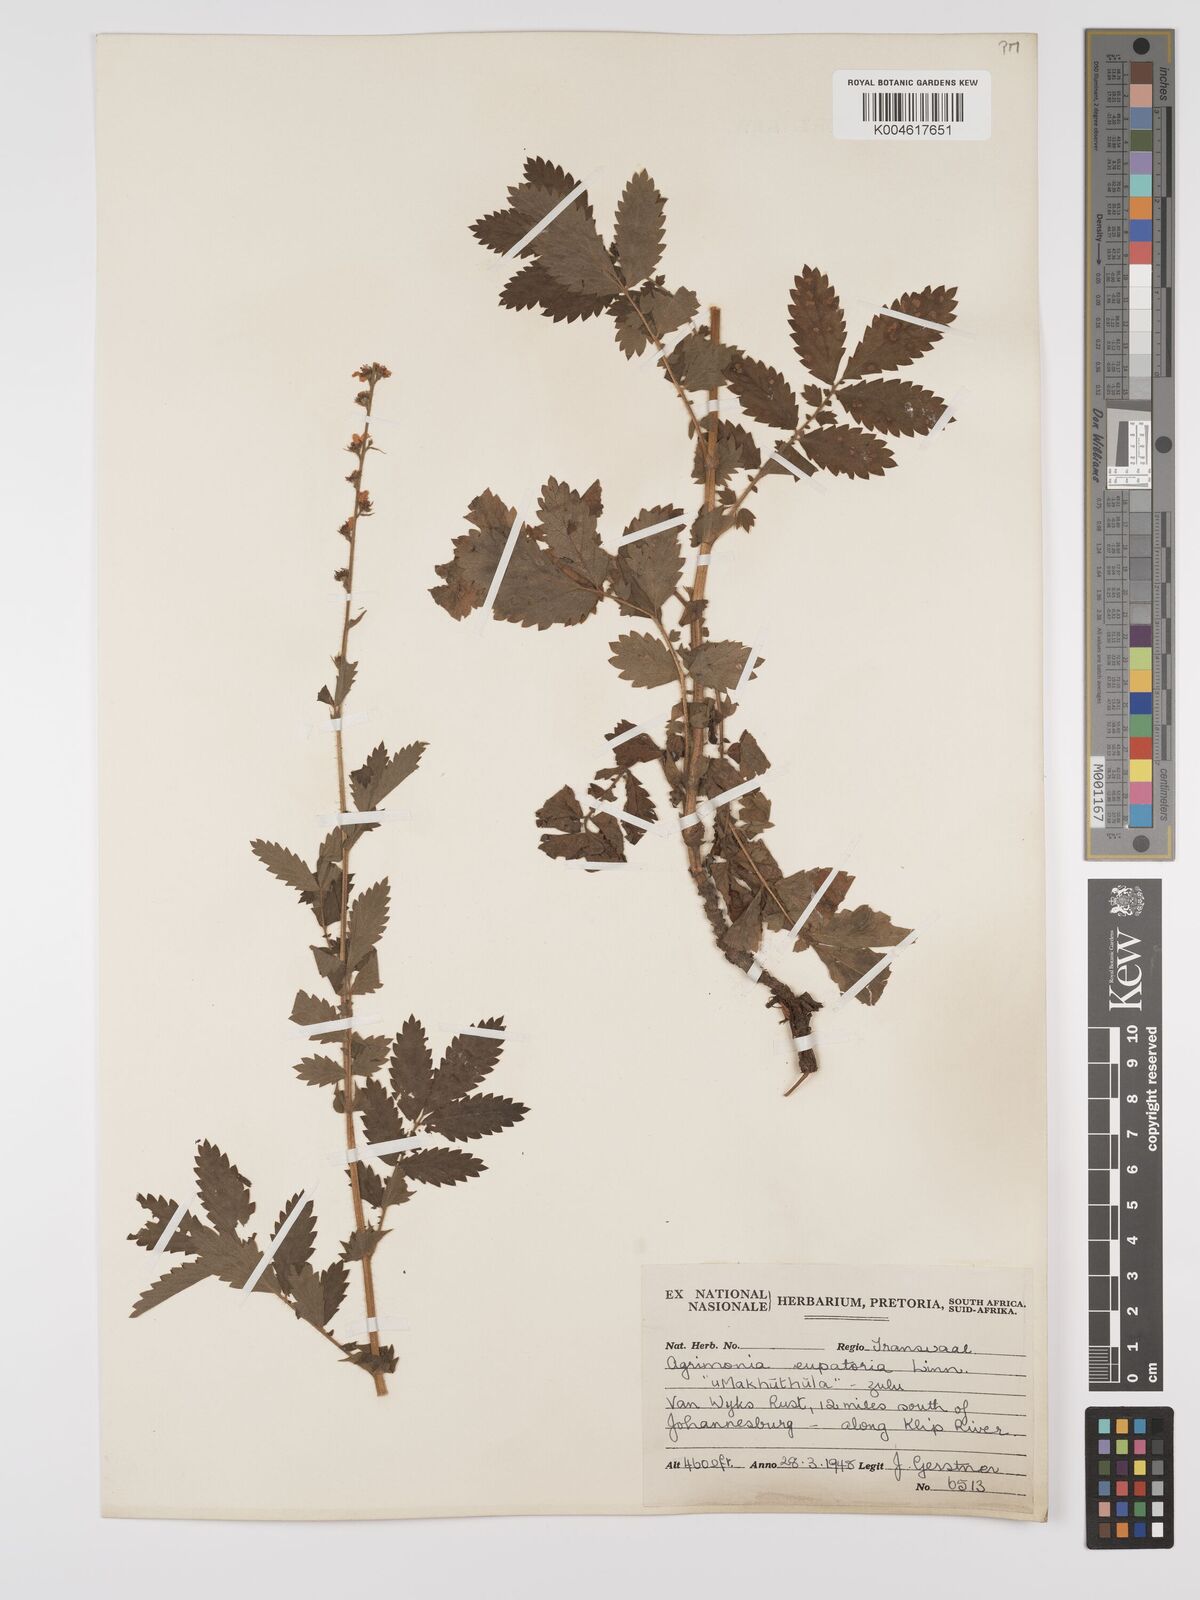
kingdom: Plantae
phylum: Tracheophyta
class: Magnoliopsida
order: Rosales
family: Rosaceae
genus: Agrimonia
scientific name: Agrimonia eupatoria
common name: Agrimony
